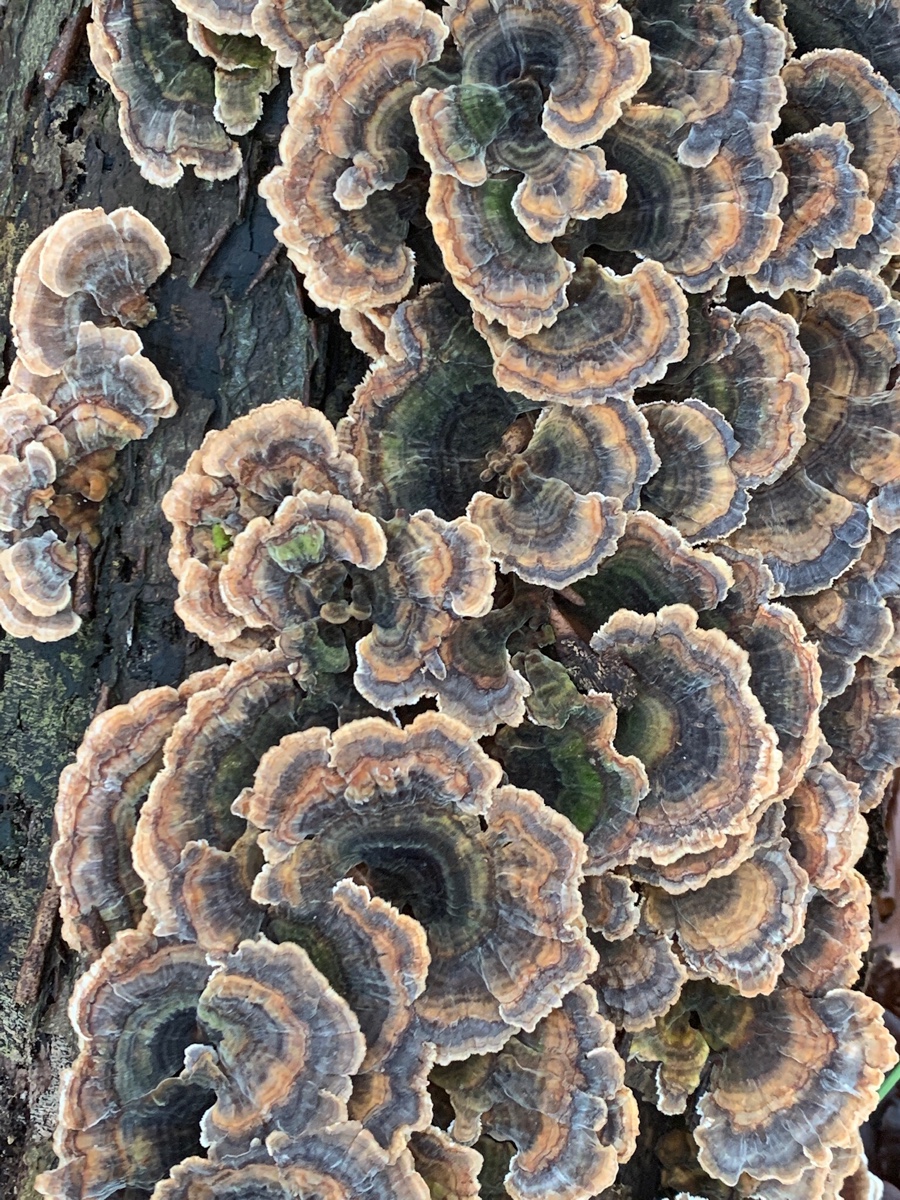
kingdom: Fungi
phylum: Basidiomycota
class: Agaricomycetes
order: Polyporales
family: Polyporaceae
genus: Trametes
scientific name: Trametes versicolor
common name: broget læderporesvamp
